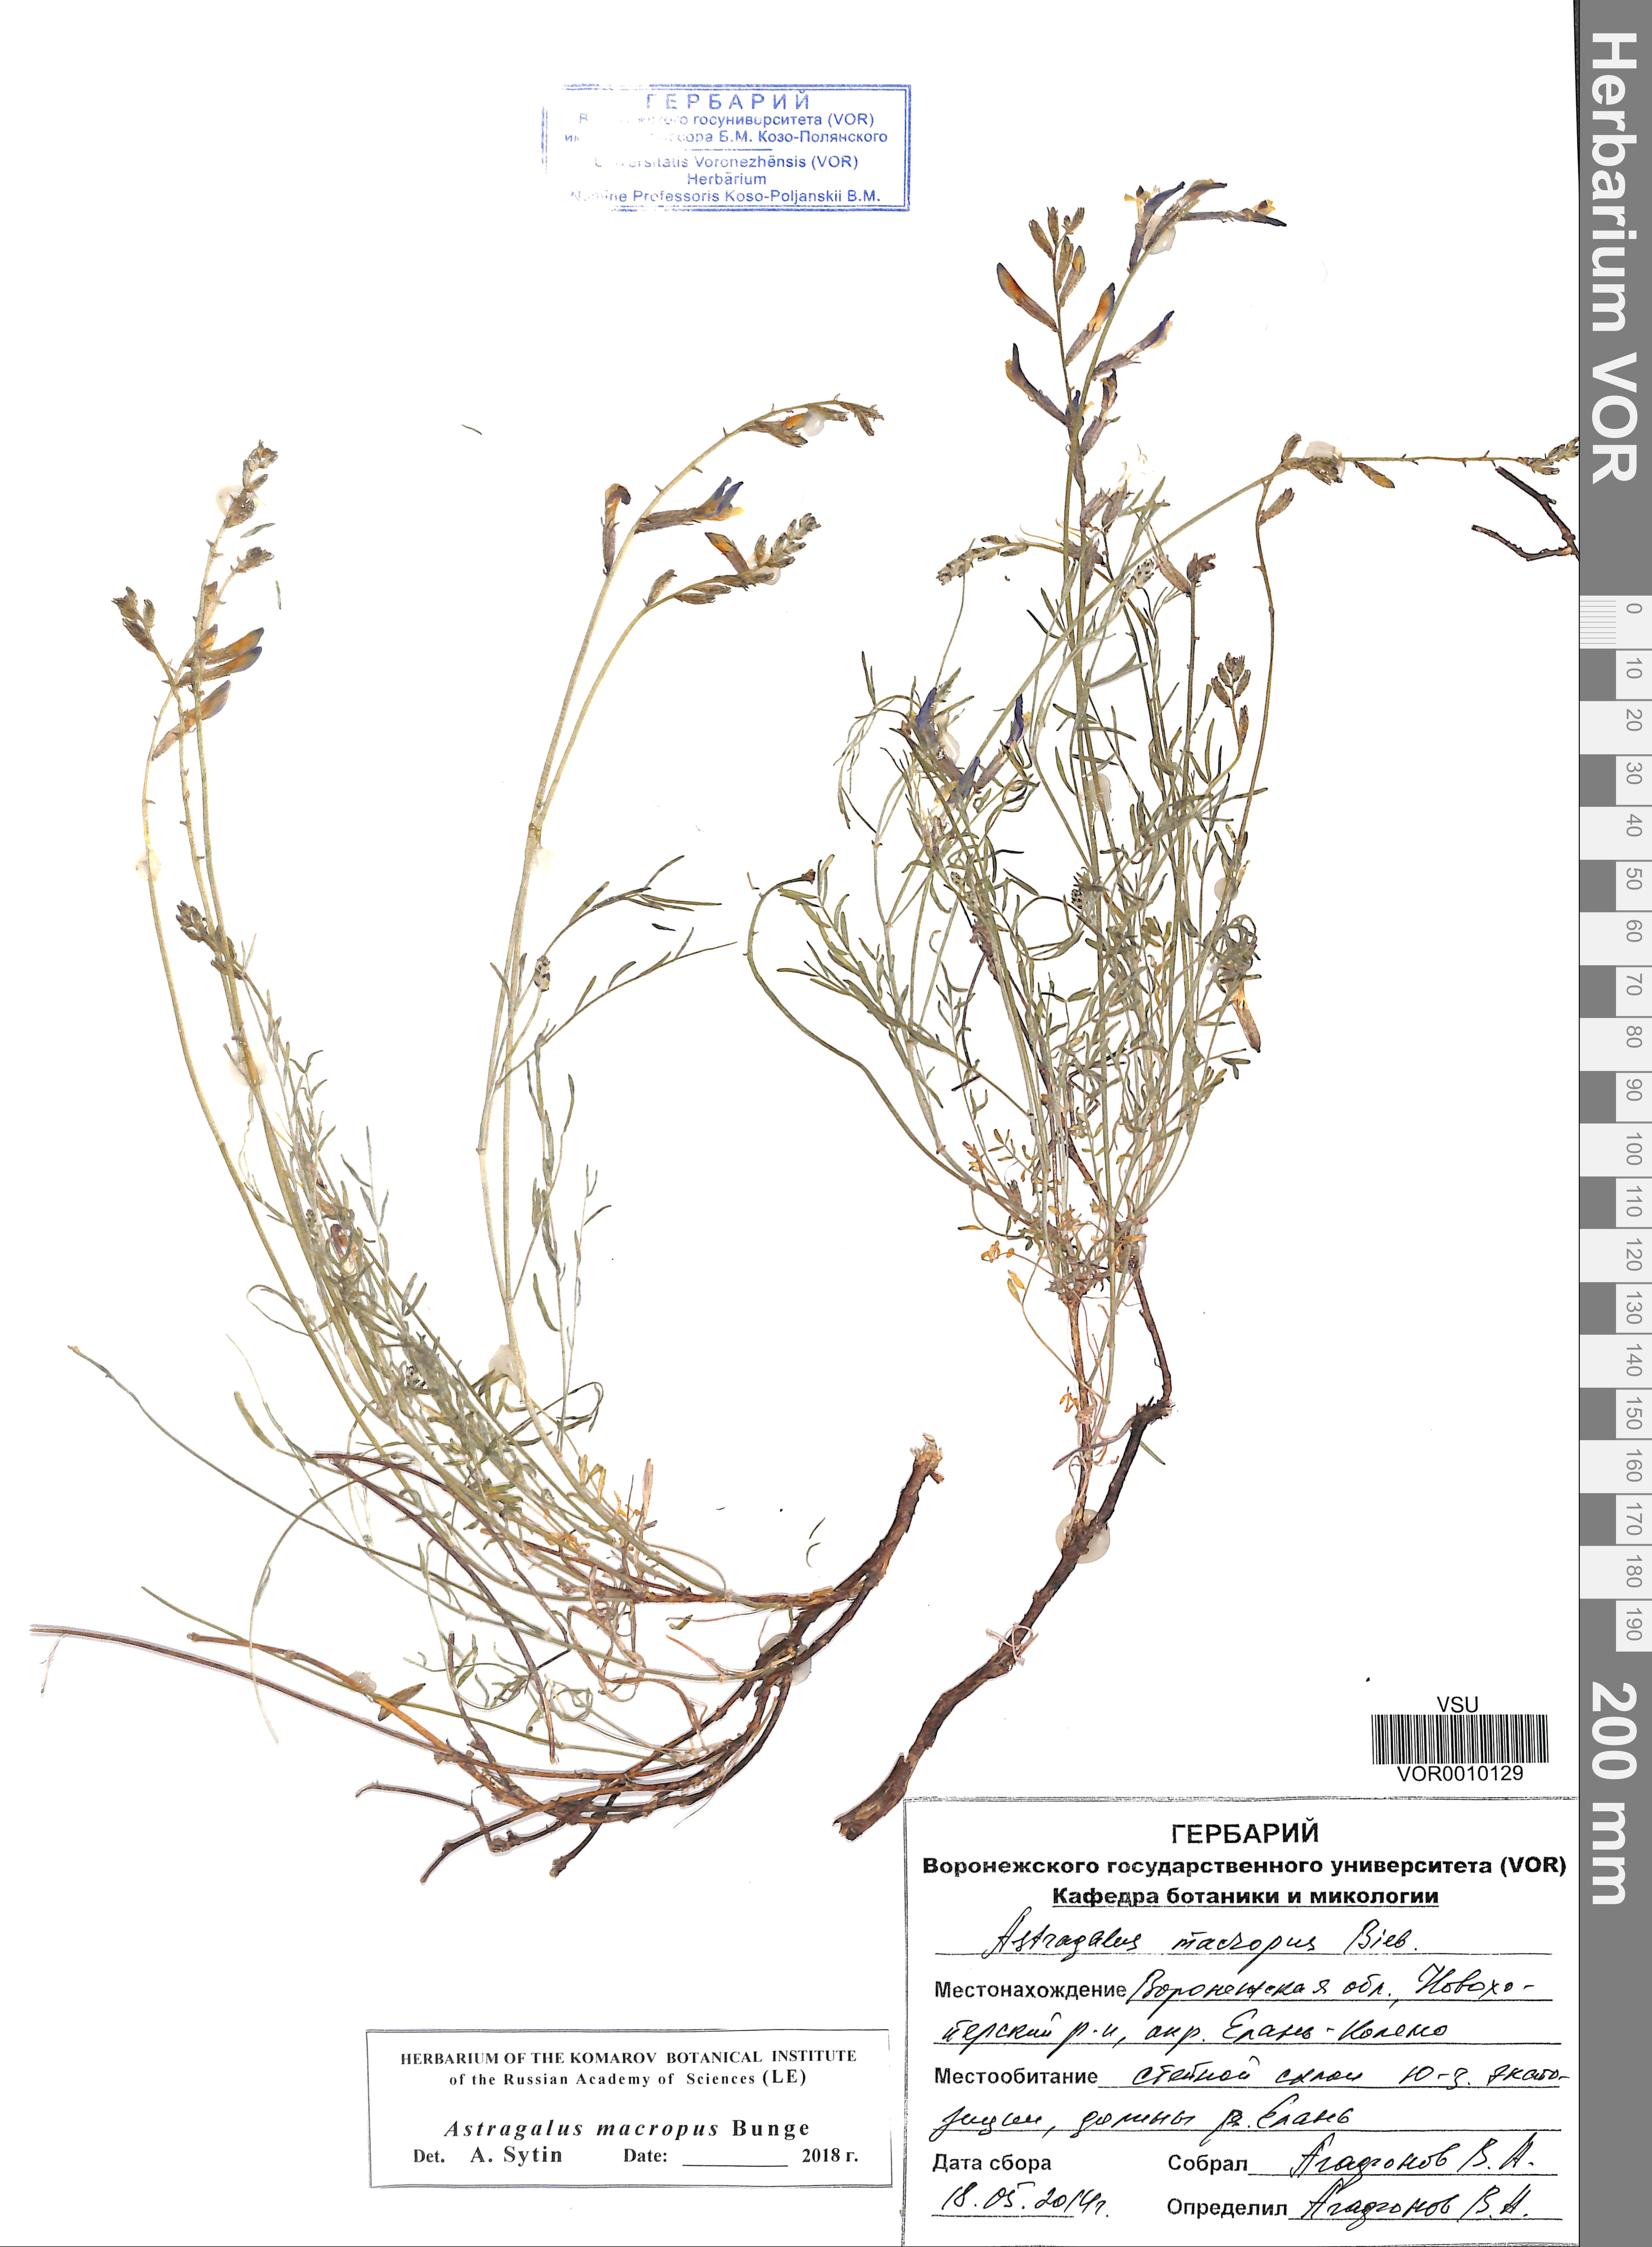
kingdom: Plantae
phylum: Tracheophyta
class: Magnoliopsida
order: Fabales
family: Fabaceae
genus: Astragalus
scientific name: Astragalus macropus
